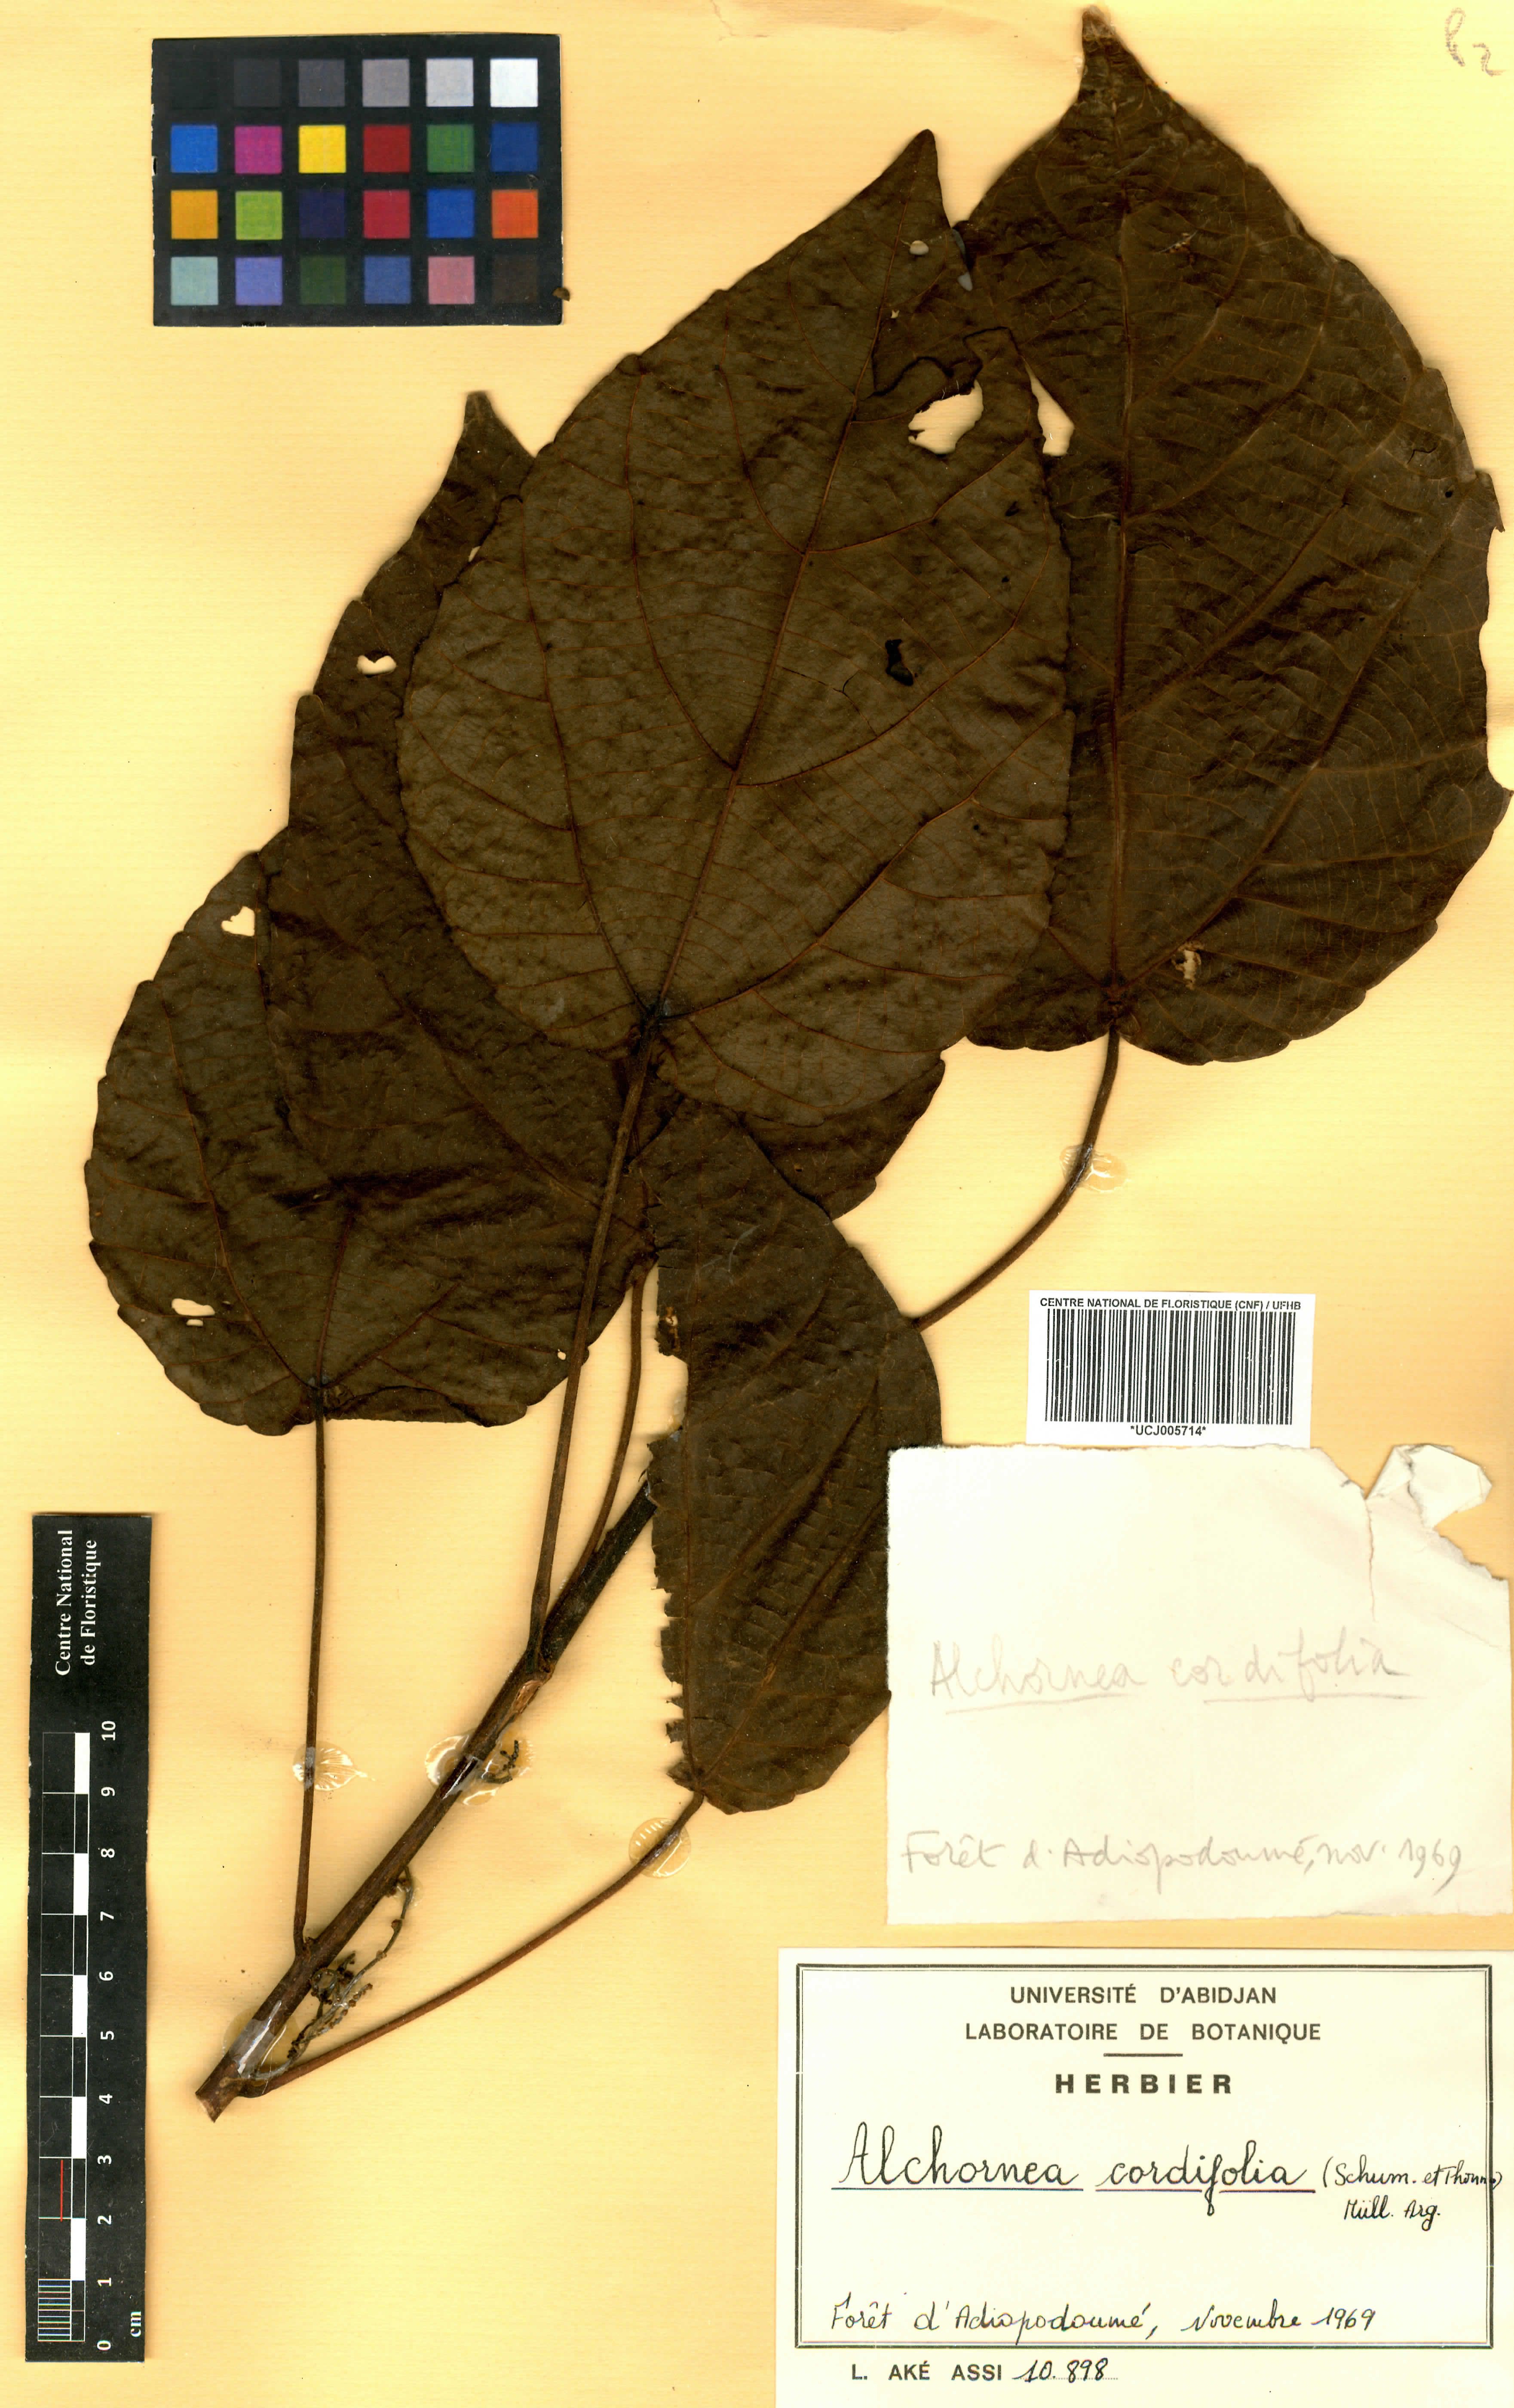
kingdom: Plantae
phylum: Tracheophyta
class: Magnoliopsida
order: Malpighiales
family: Euphorbiaceae
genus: Alchornea
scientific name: Alchornea cordifolia
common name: Christmasbush
